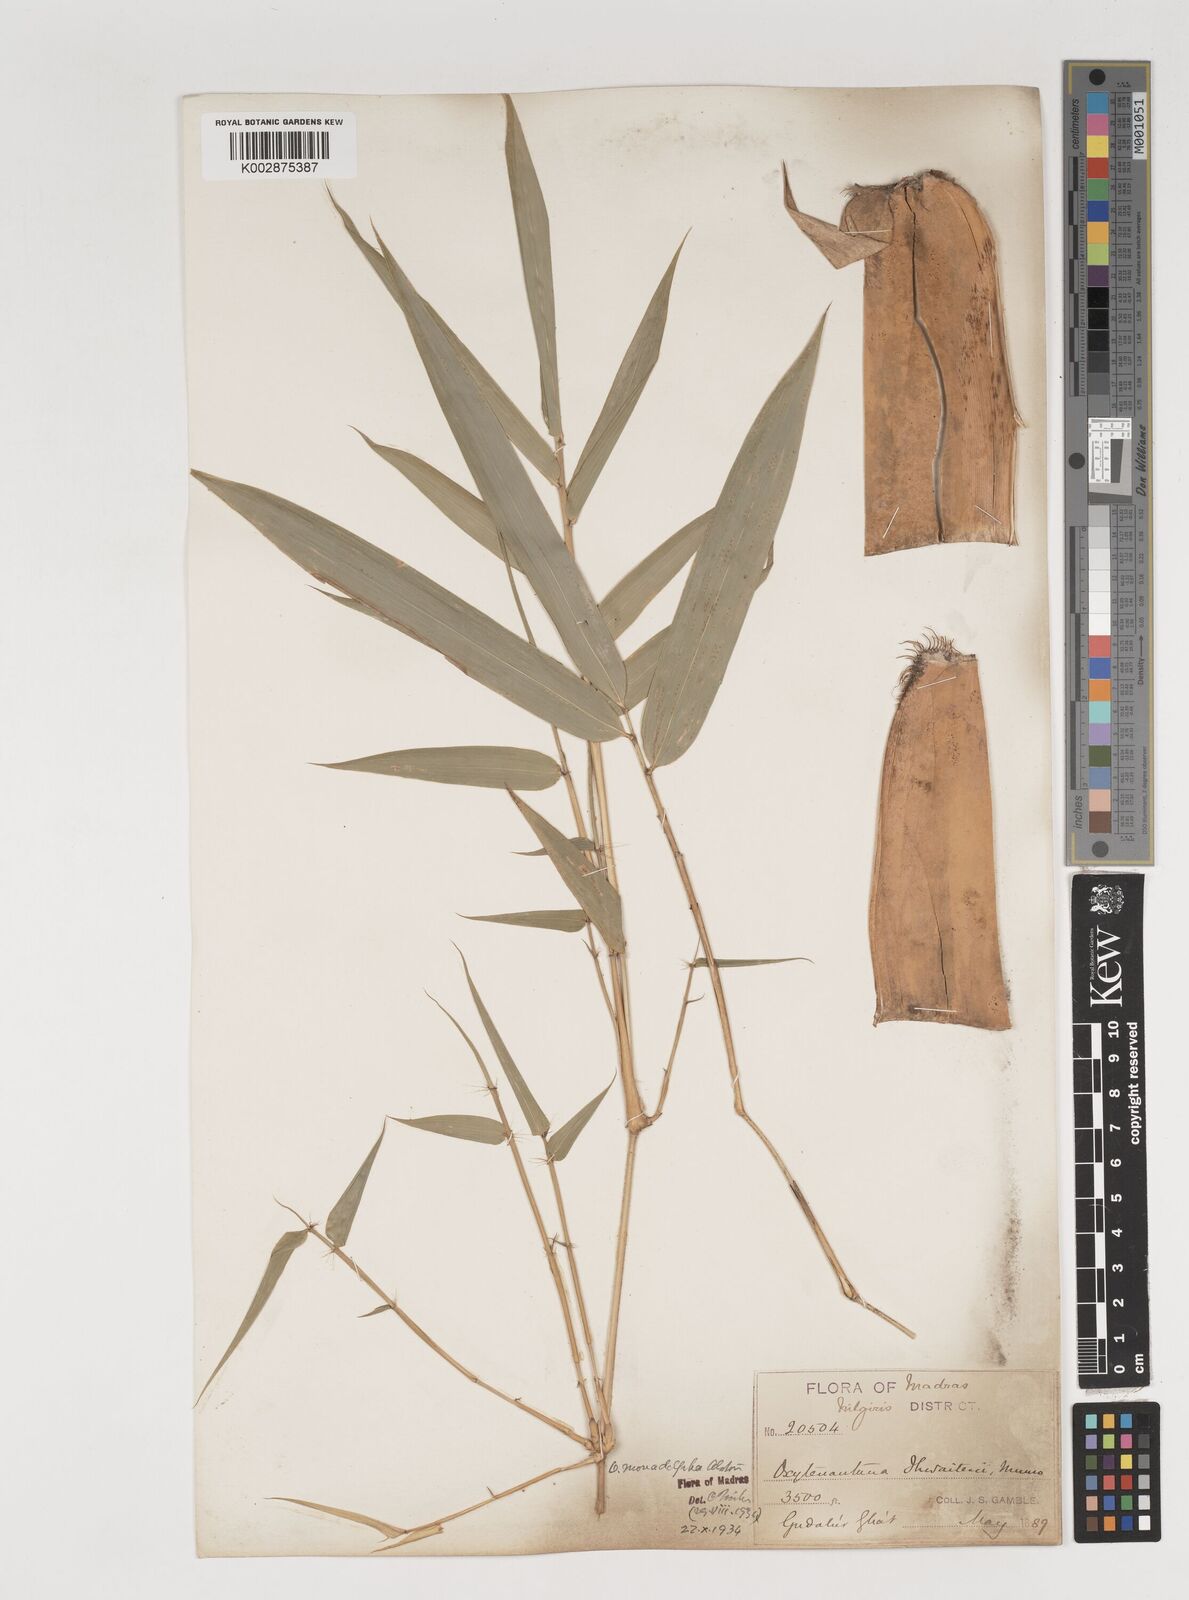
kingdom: Plantae
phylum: Tracheophyta
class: Liliopsida
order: Poales
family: Poaceae
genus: Pseudoxytenanthera
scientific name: Pseudoxytenanthera monadelpha
